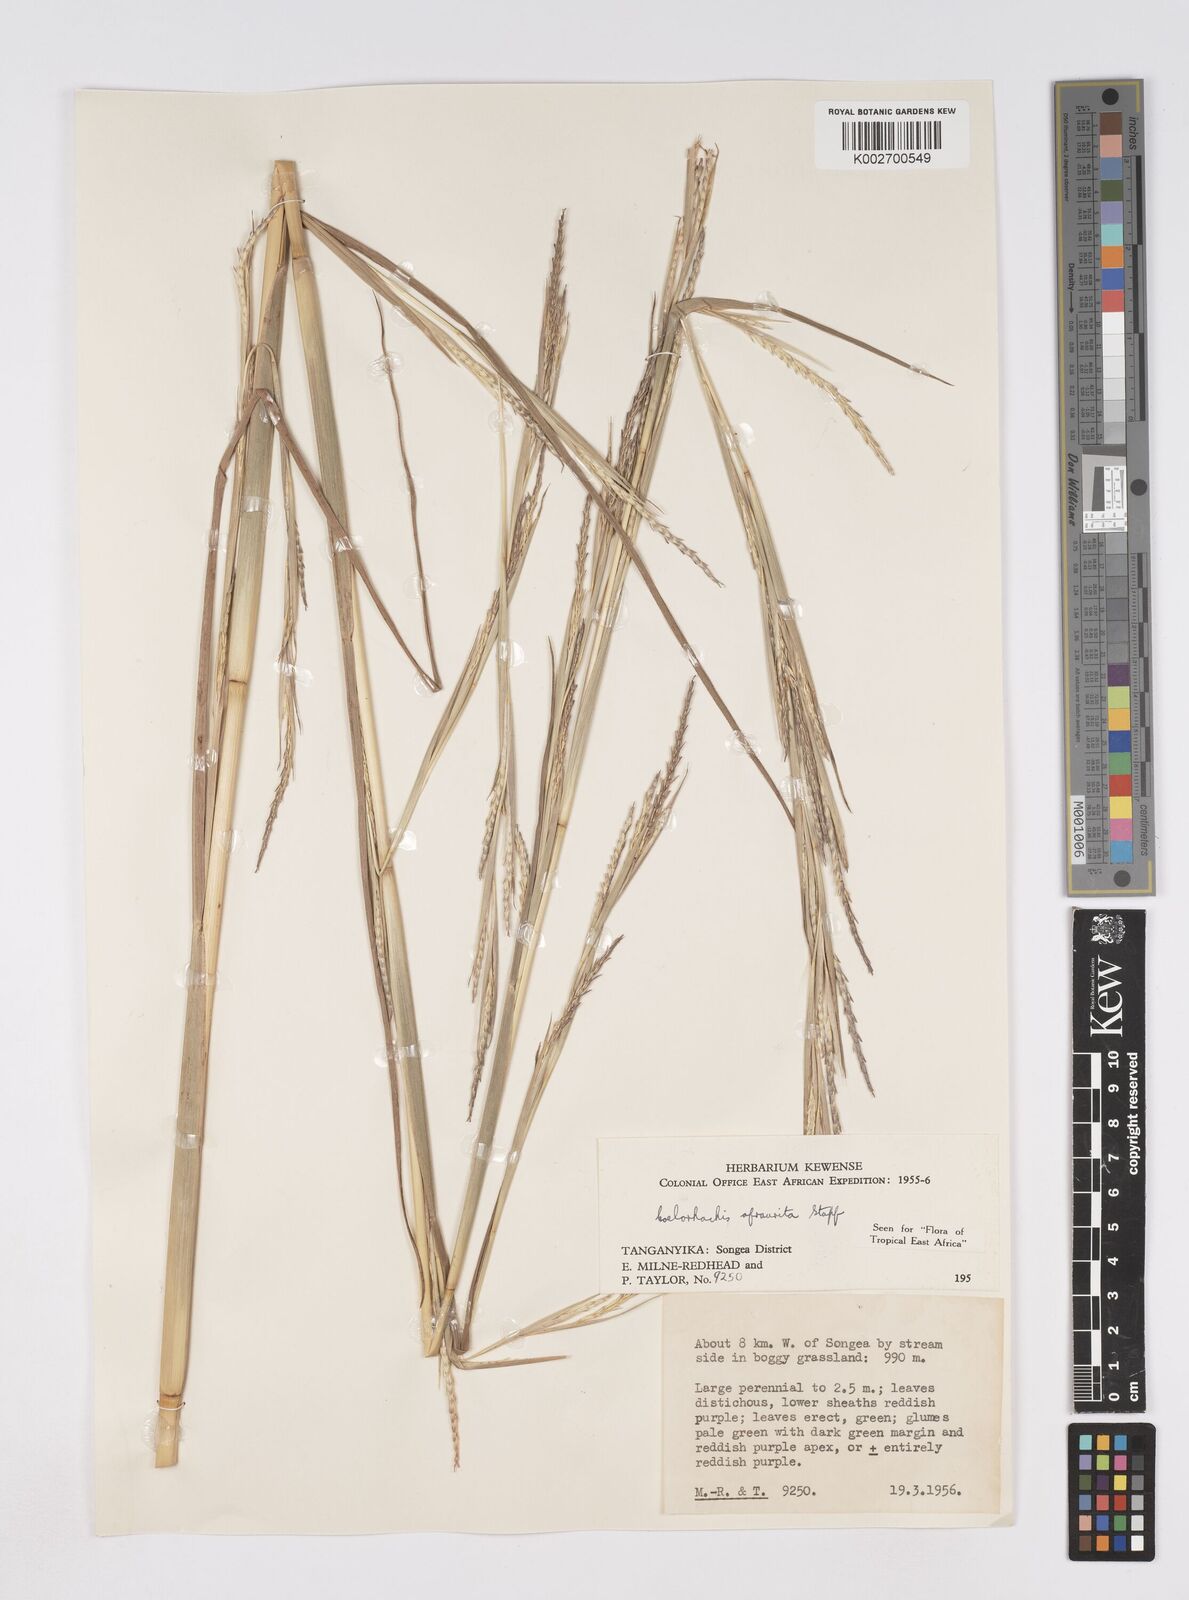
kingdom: Plantae
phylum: Tracheophyta
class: Liliopsida
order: Poales
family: Poaceae
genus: Rottboellia
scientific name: Rottboellia afraurita
